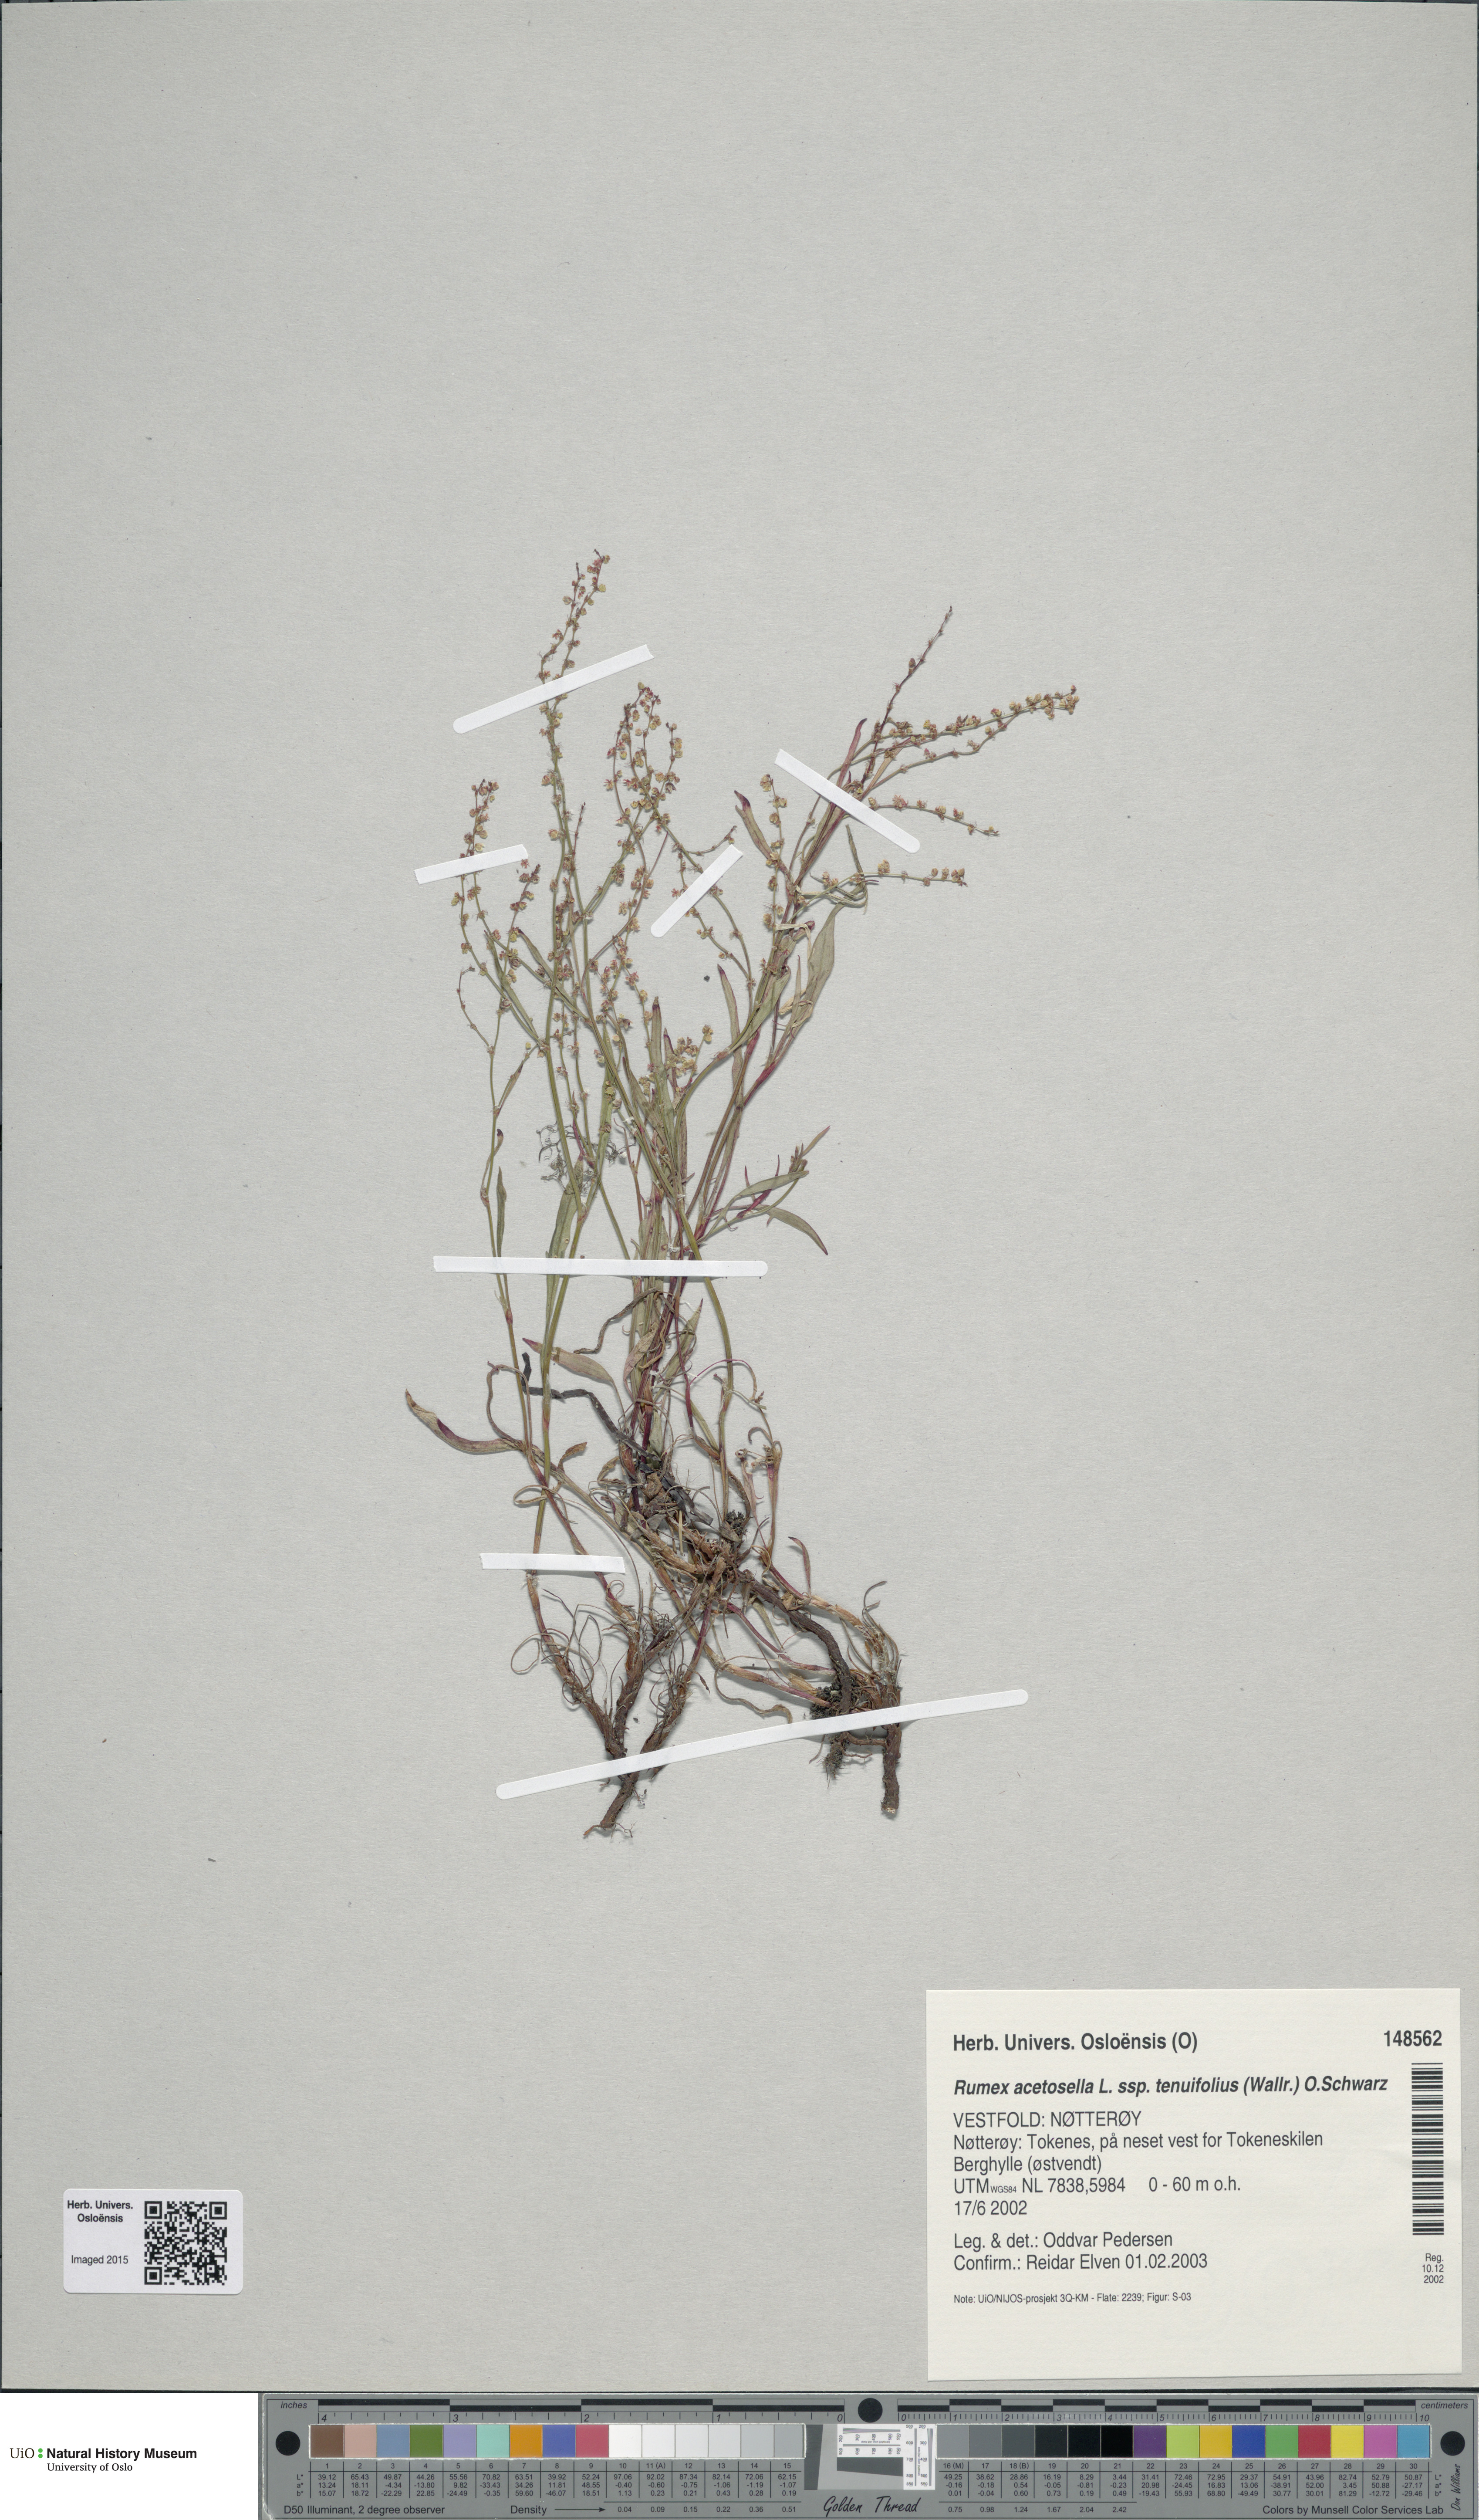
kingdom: Plantae
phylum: Tracheophyta
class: Magnoliopsida
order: Caryophyllales
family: Polygonaceae
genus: Rumex
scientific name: Rumex acetosella
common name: Common sheep sorrel
